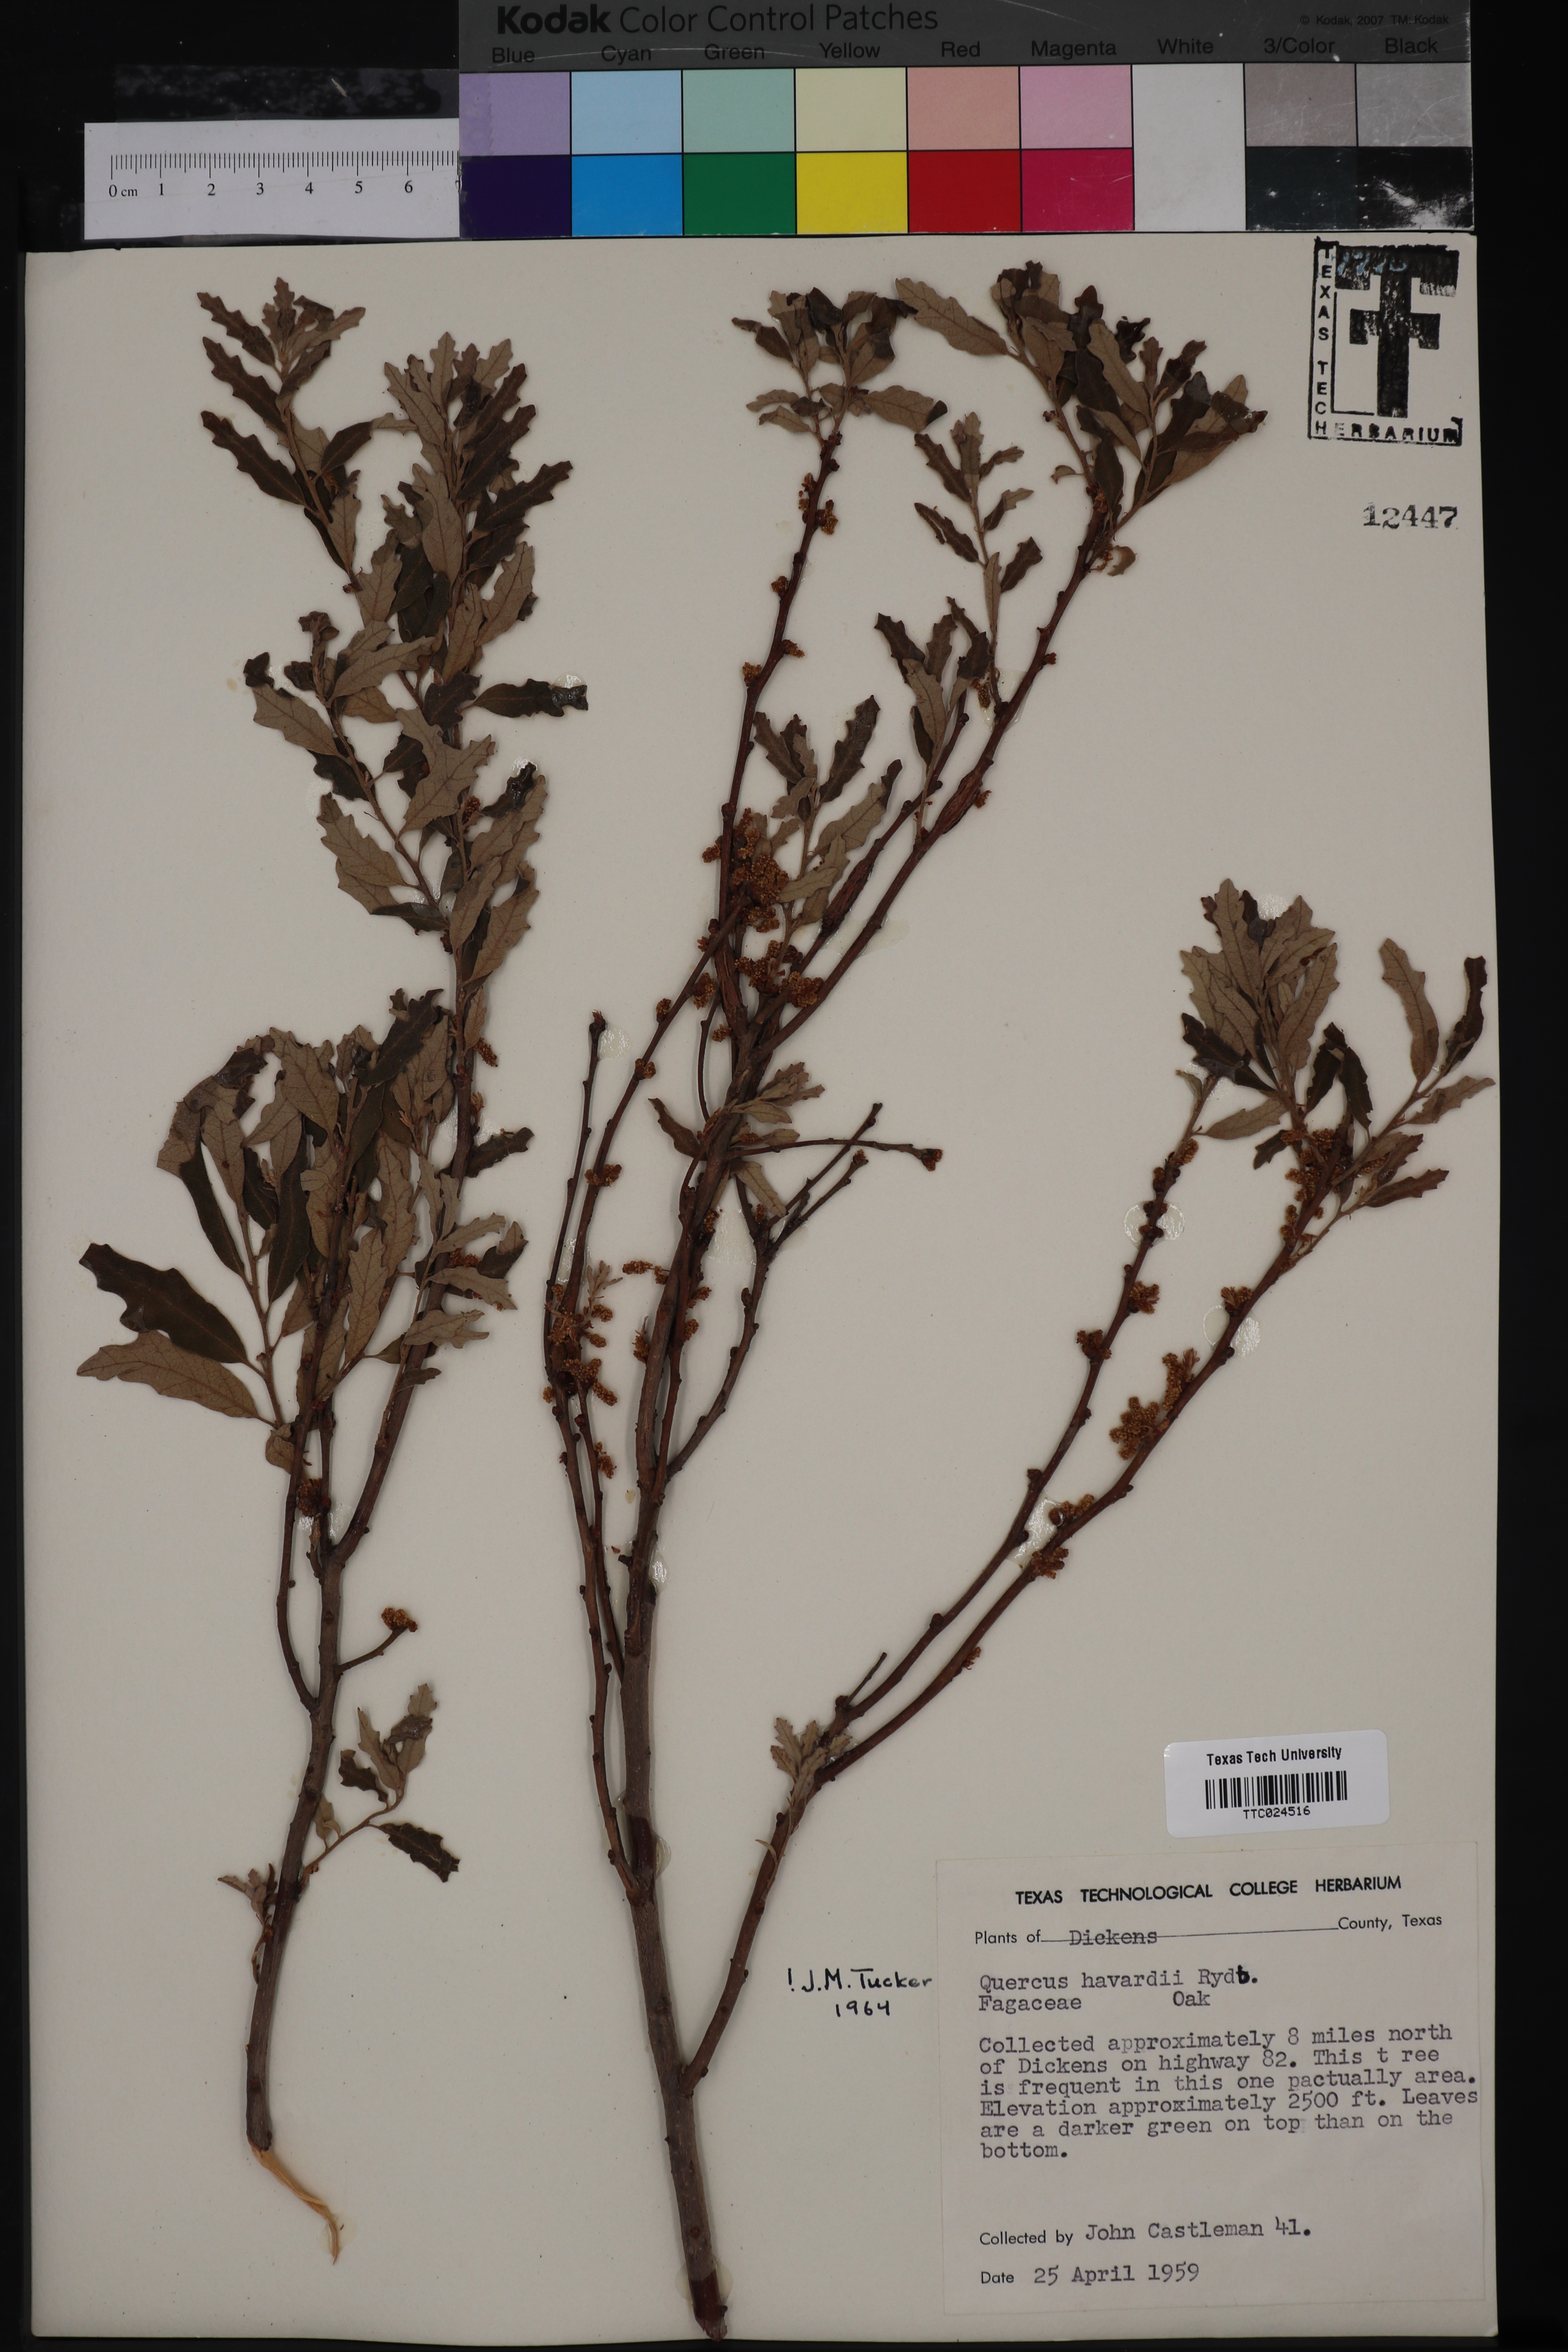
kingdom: Plantae
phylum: Tracheophyta
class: Magnoliopsida
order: Fagales
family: Fagaceae
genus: Quercus
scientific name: Quercus havardii
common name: Shinnery oak
